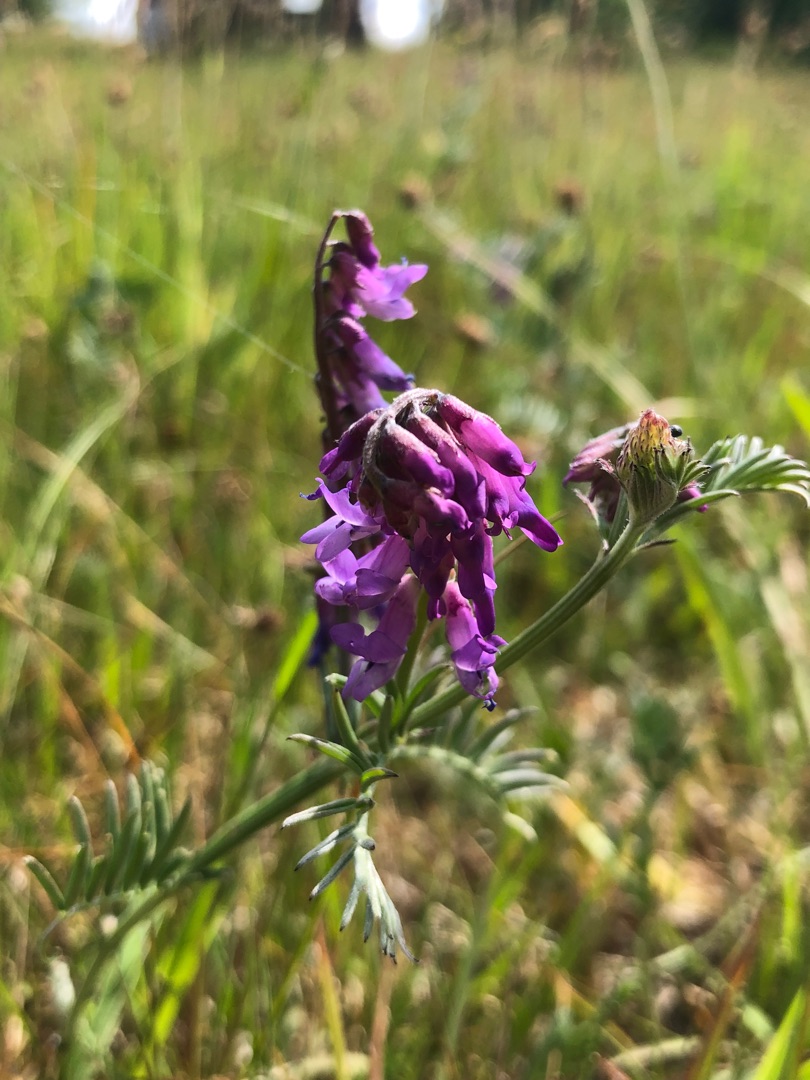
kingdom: Plantae
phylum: Tracheophyta
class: Magnoliopsida
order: Fabales
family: Fabaceae
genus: Vicia
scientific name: Vicia cracca
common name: Muse-vikke
